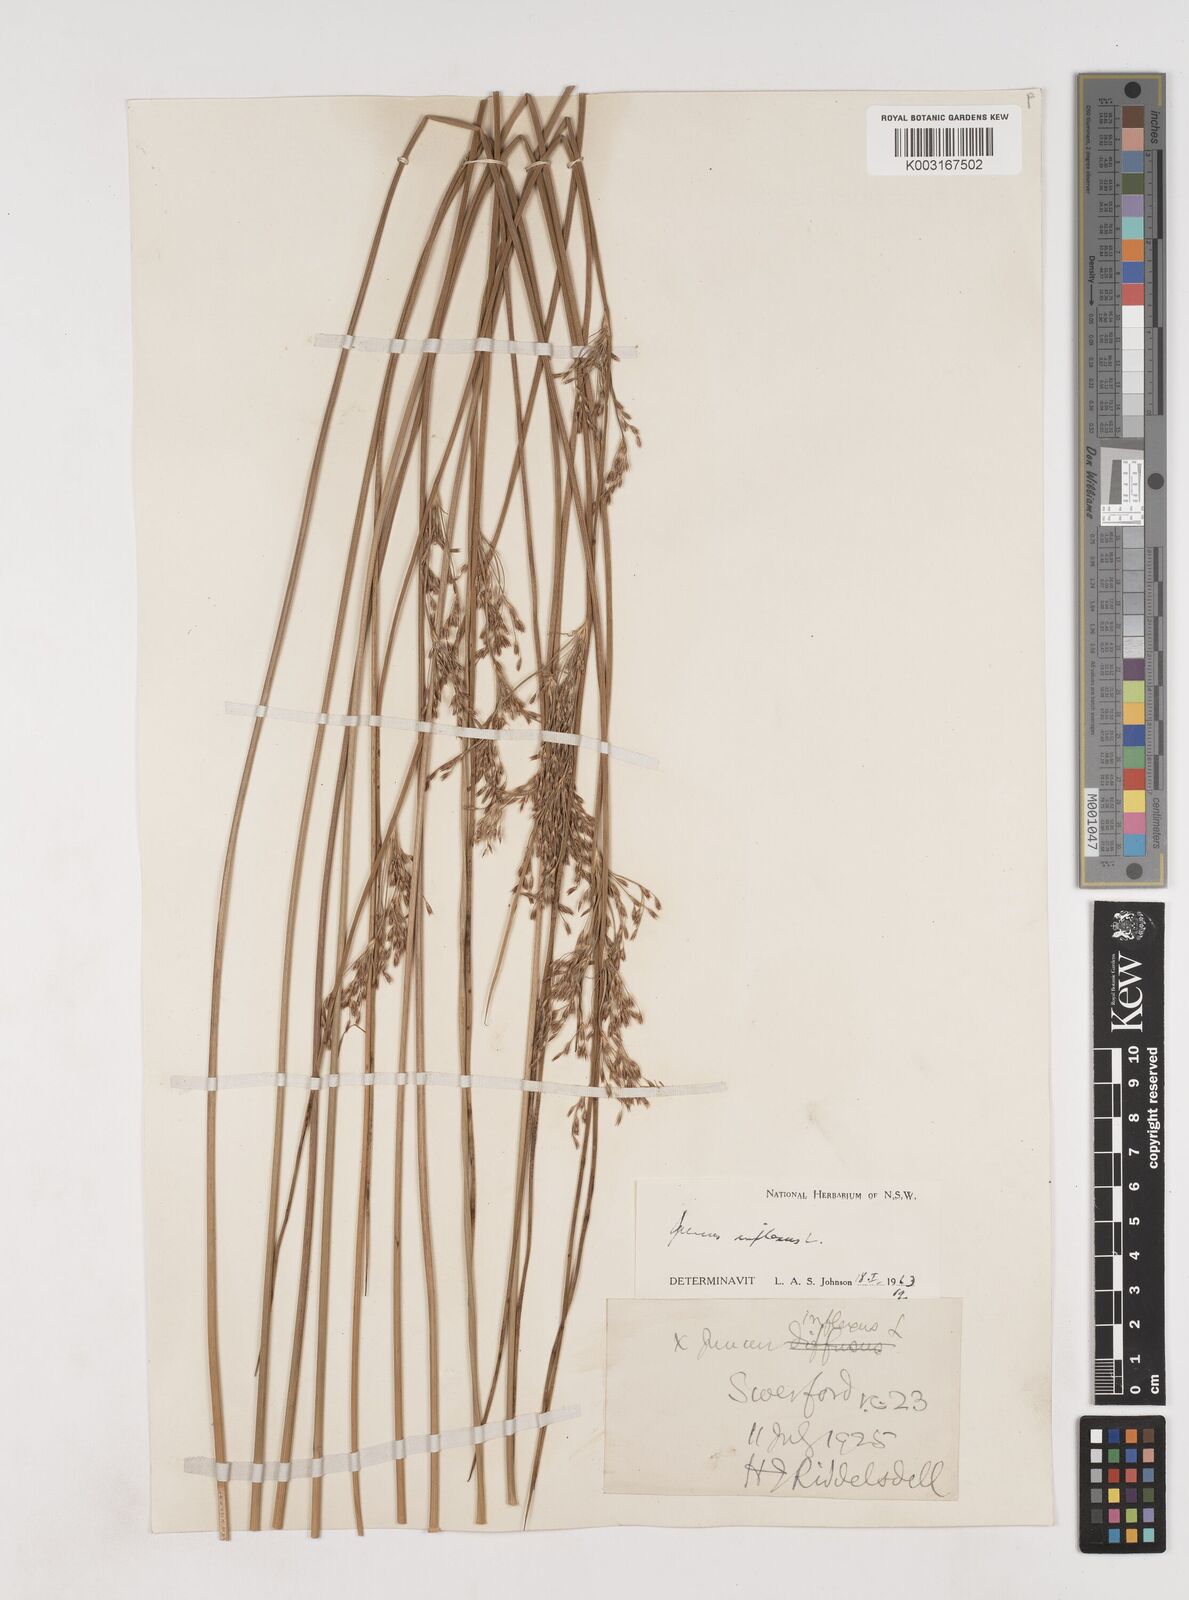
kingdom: Plantae
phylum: Tracheophyta
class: Liliopsida
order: Poales
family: Juncaceae
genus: Juncus
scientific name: Juncus inflexus
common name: Hard rush
